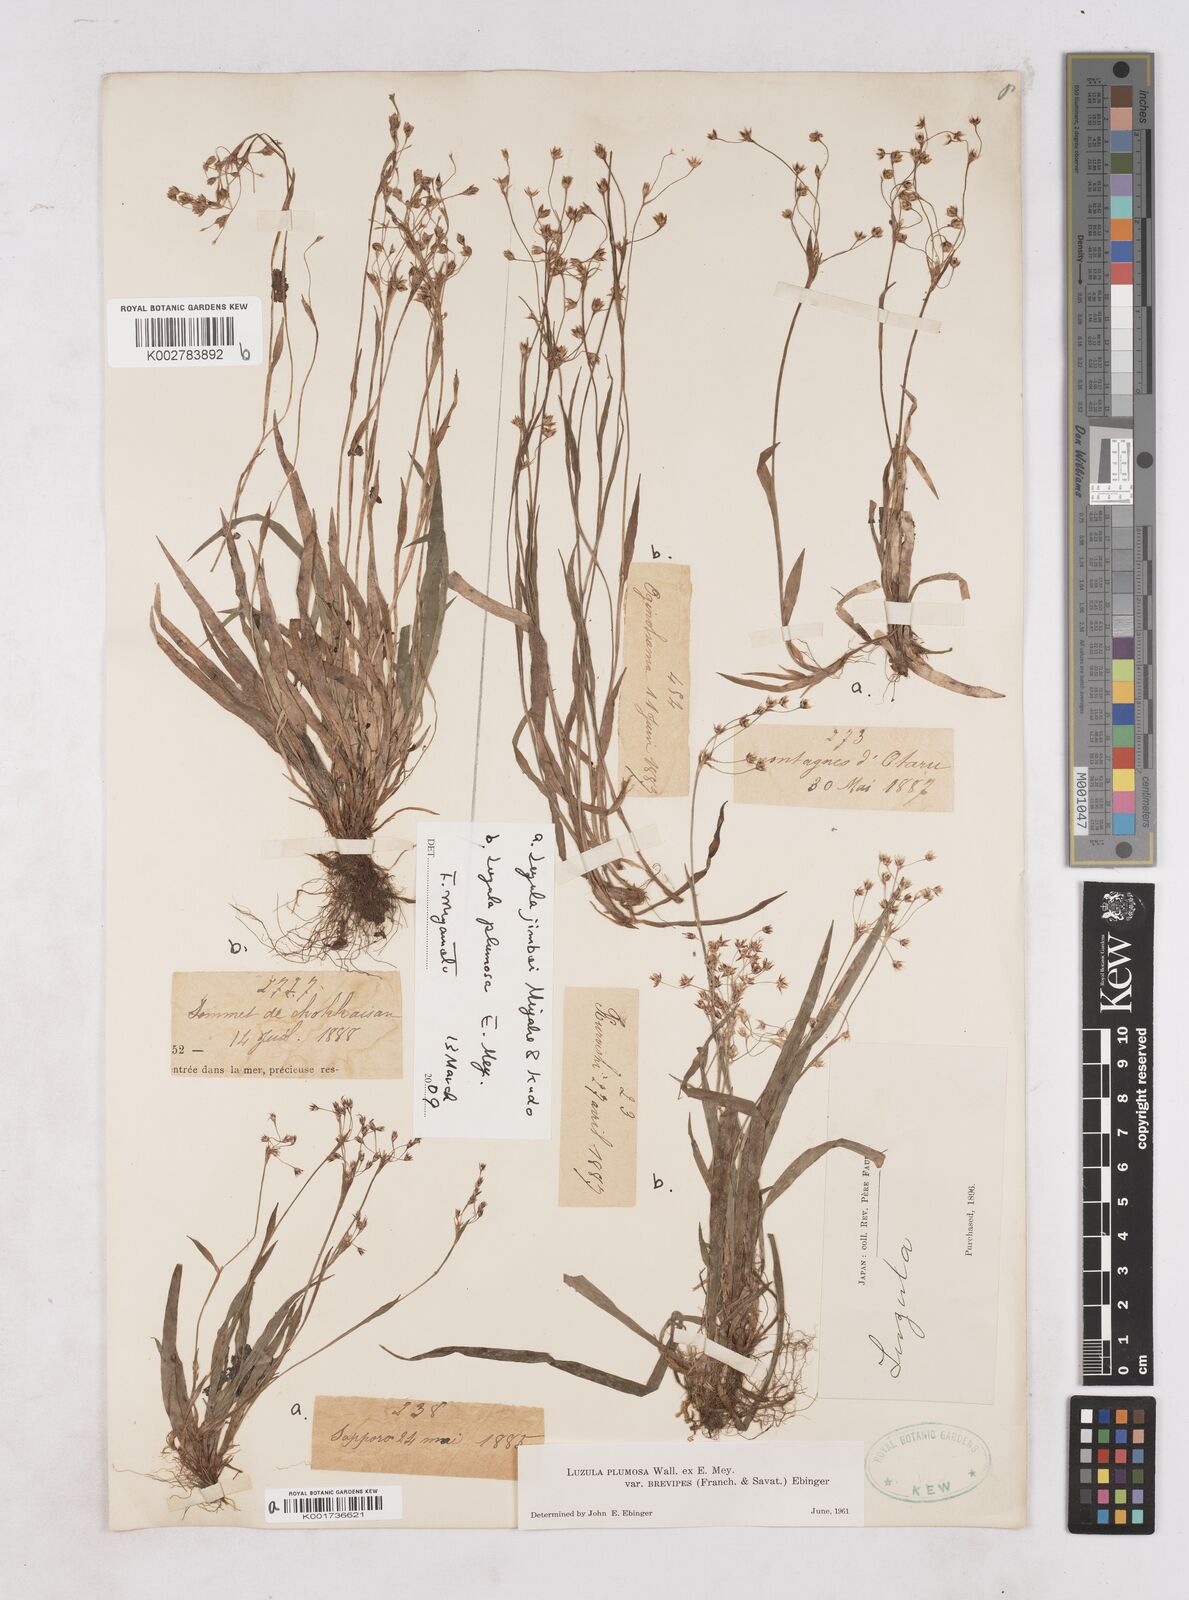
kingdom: Plantae
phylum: Tracheophyta
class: Liliopsida
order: Poales
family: Juncaceae
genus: Luzula
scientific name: Luzula plumosa
